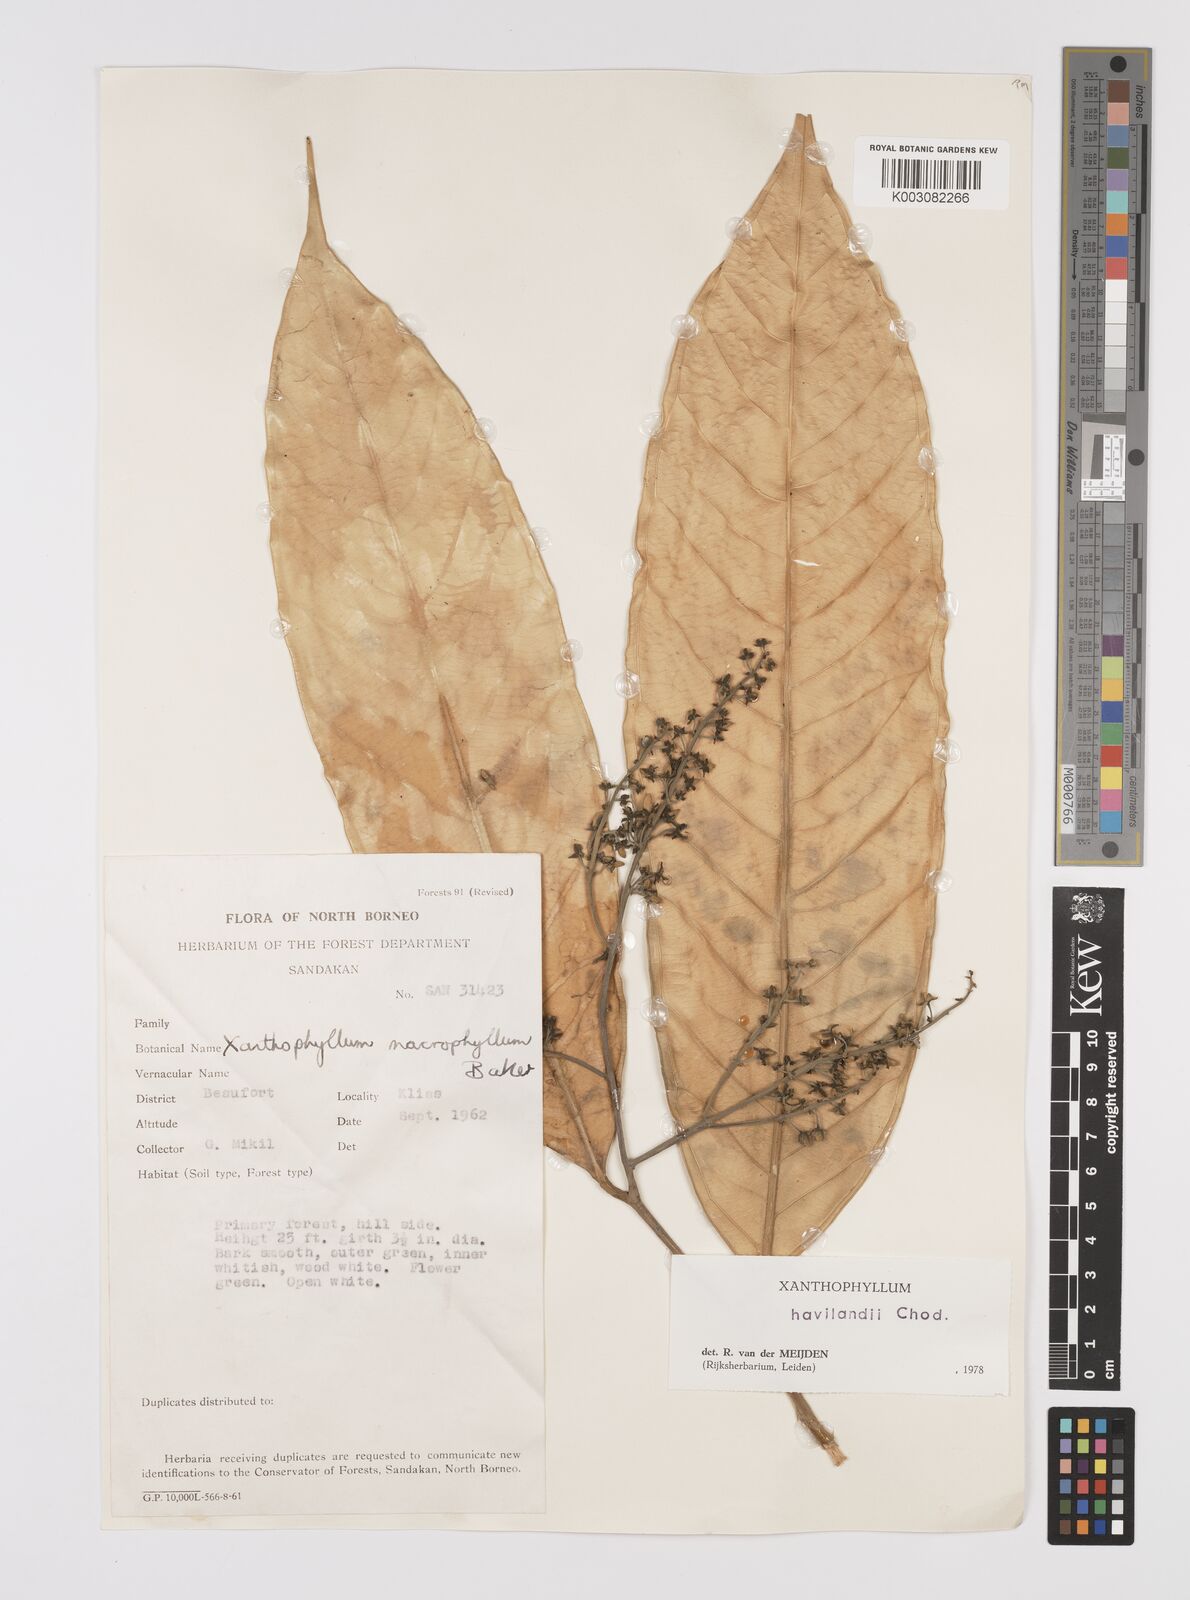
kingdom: Plantae
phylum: Tracheophyta
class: Magnoliopsida
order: Fabales
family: Polygalaceae
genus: Xanthophyllum
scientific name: Xanthophyllum flavescens
